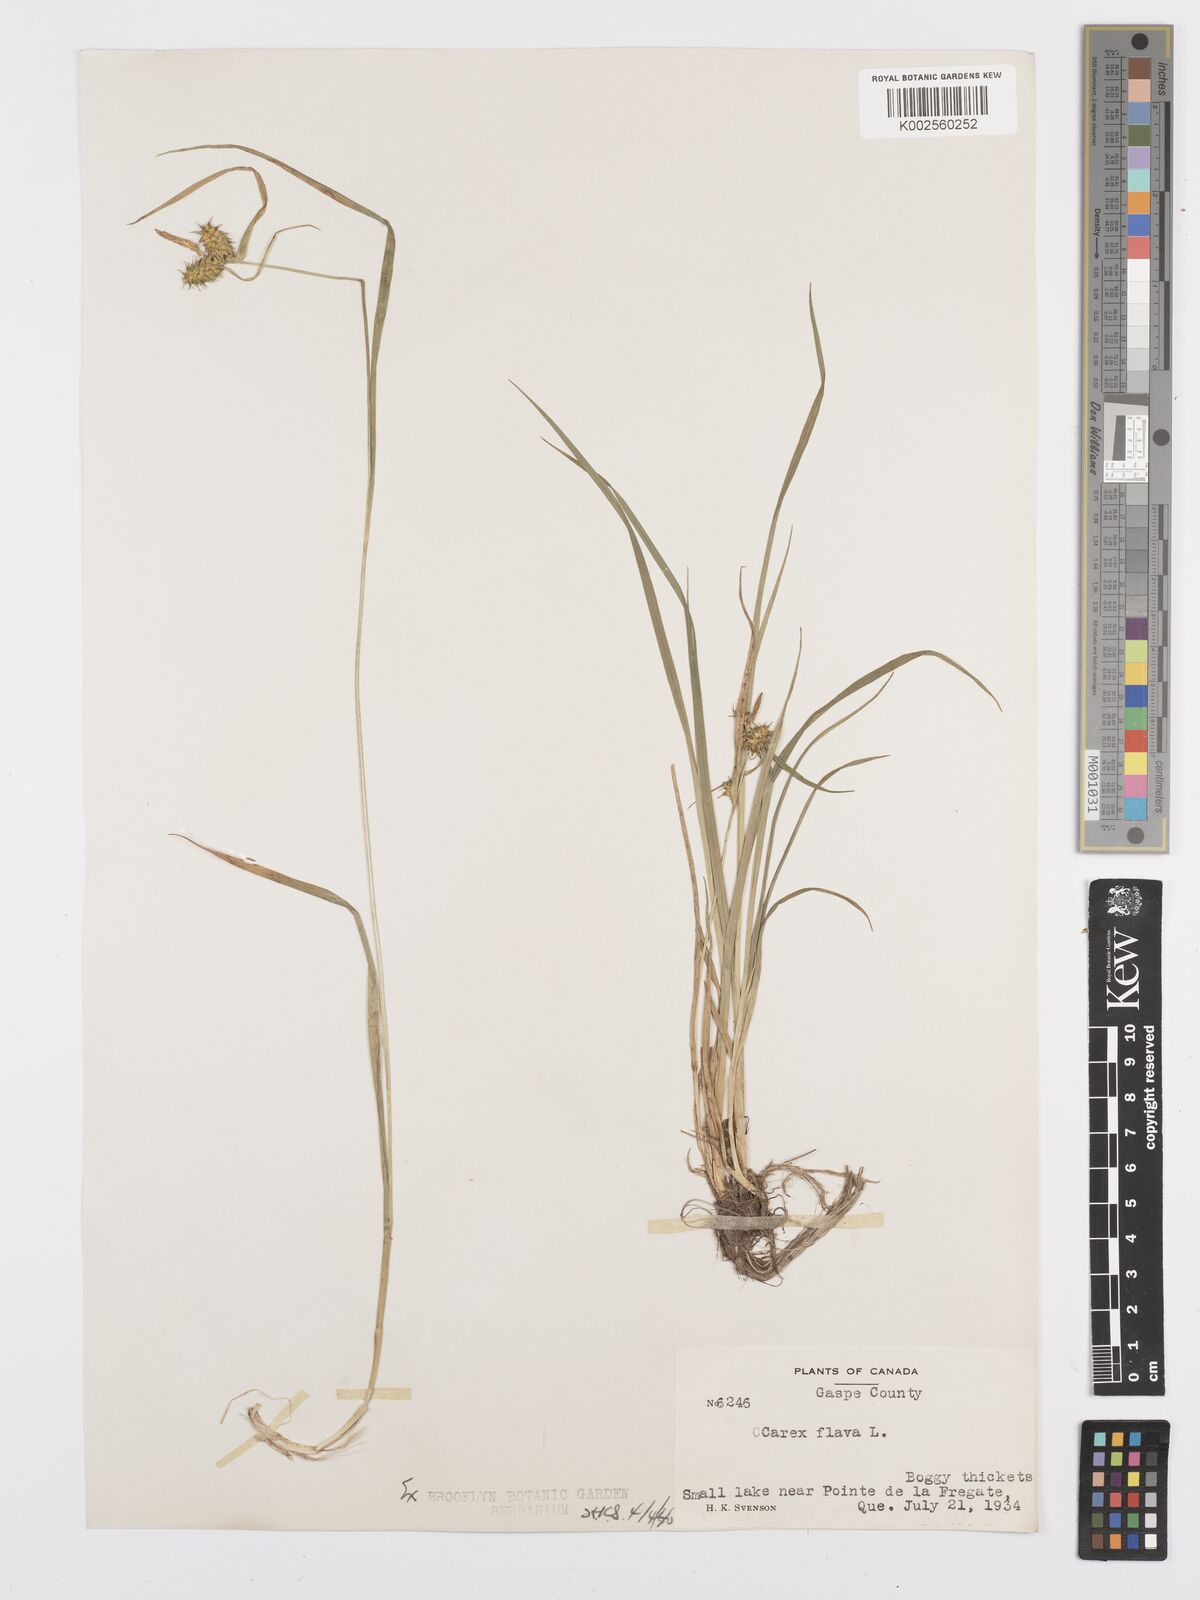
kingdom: Plantae
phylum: Tracheophyta
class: Liliopsida
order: Poales
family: Cyperaceae
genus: Carex
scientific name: Carex flava
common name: Large yellow-sedge
